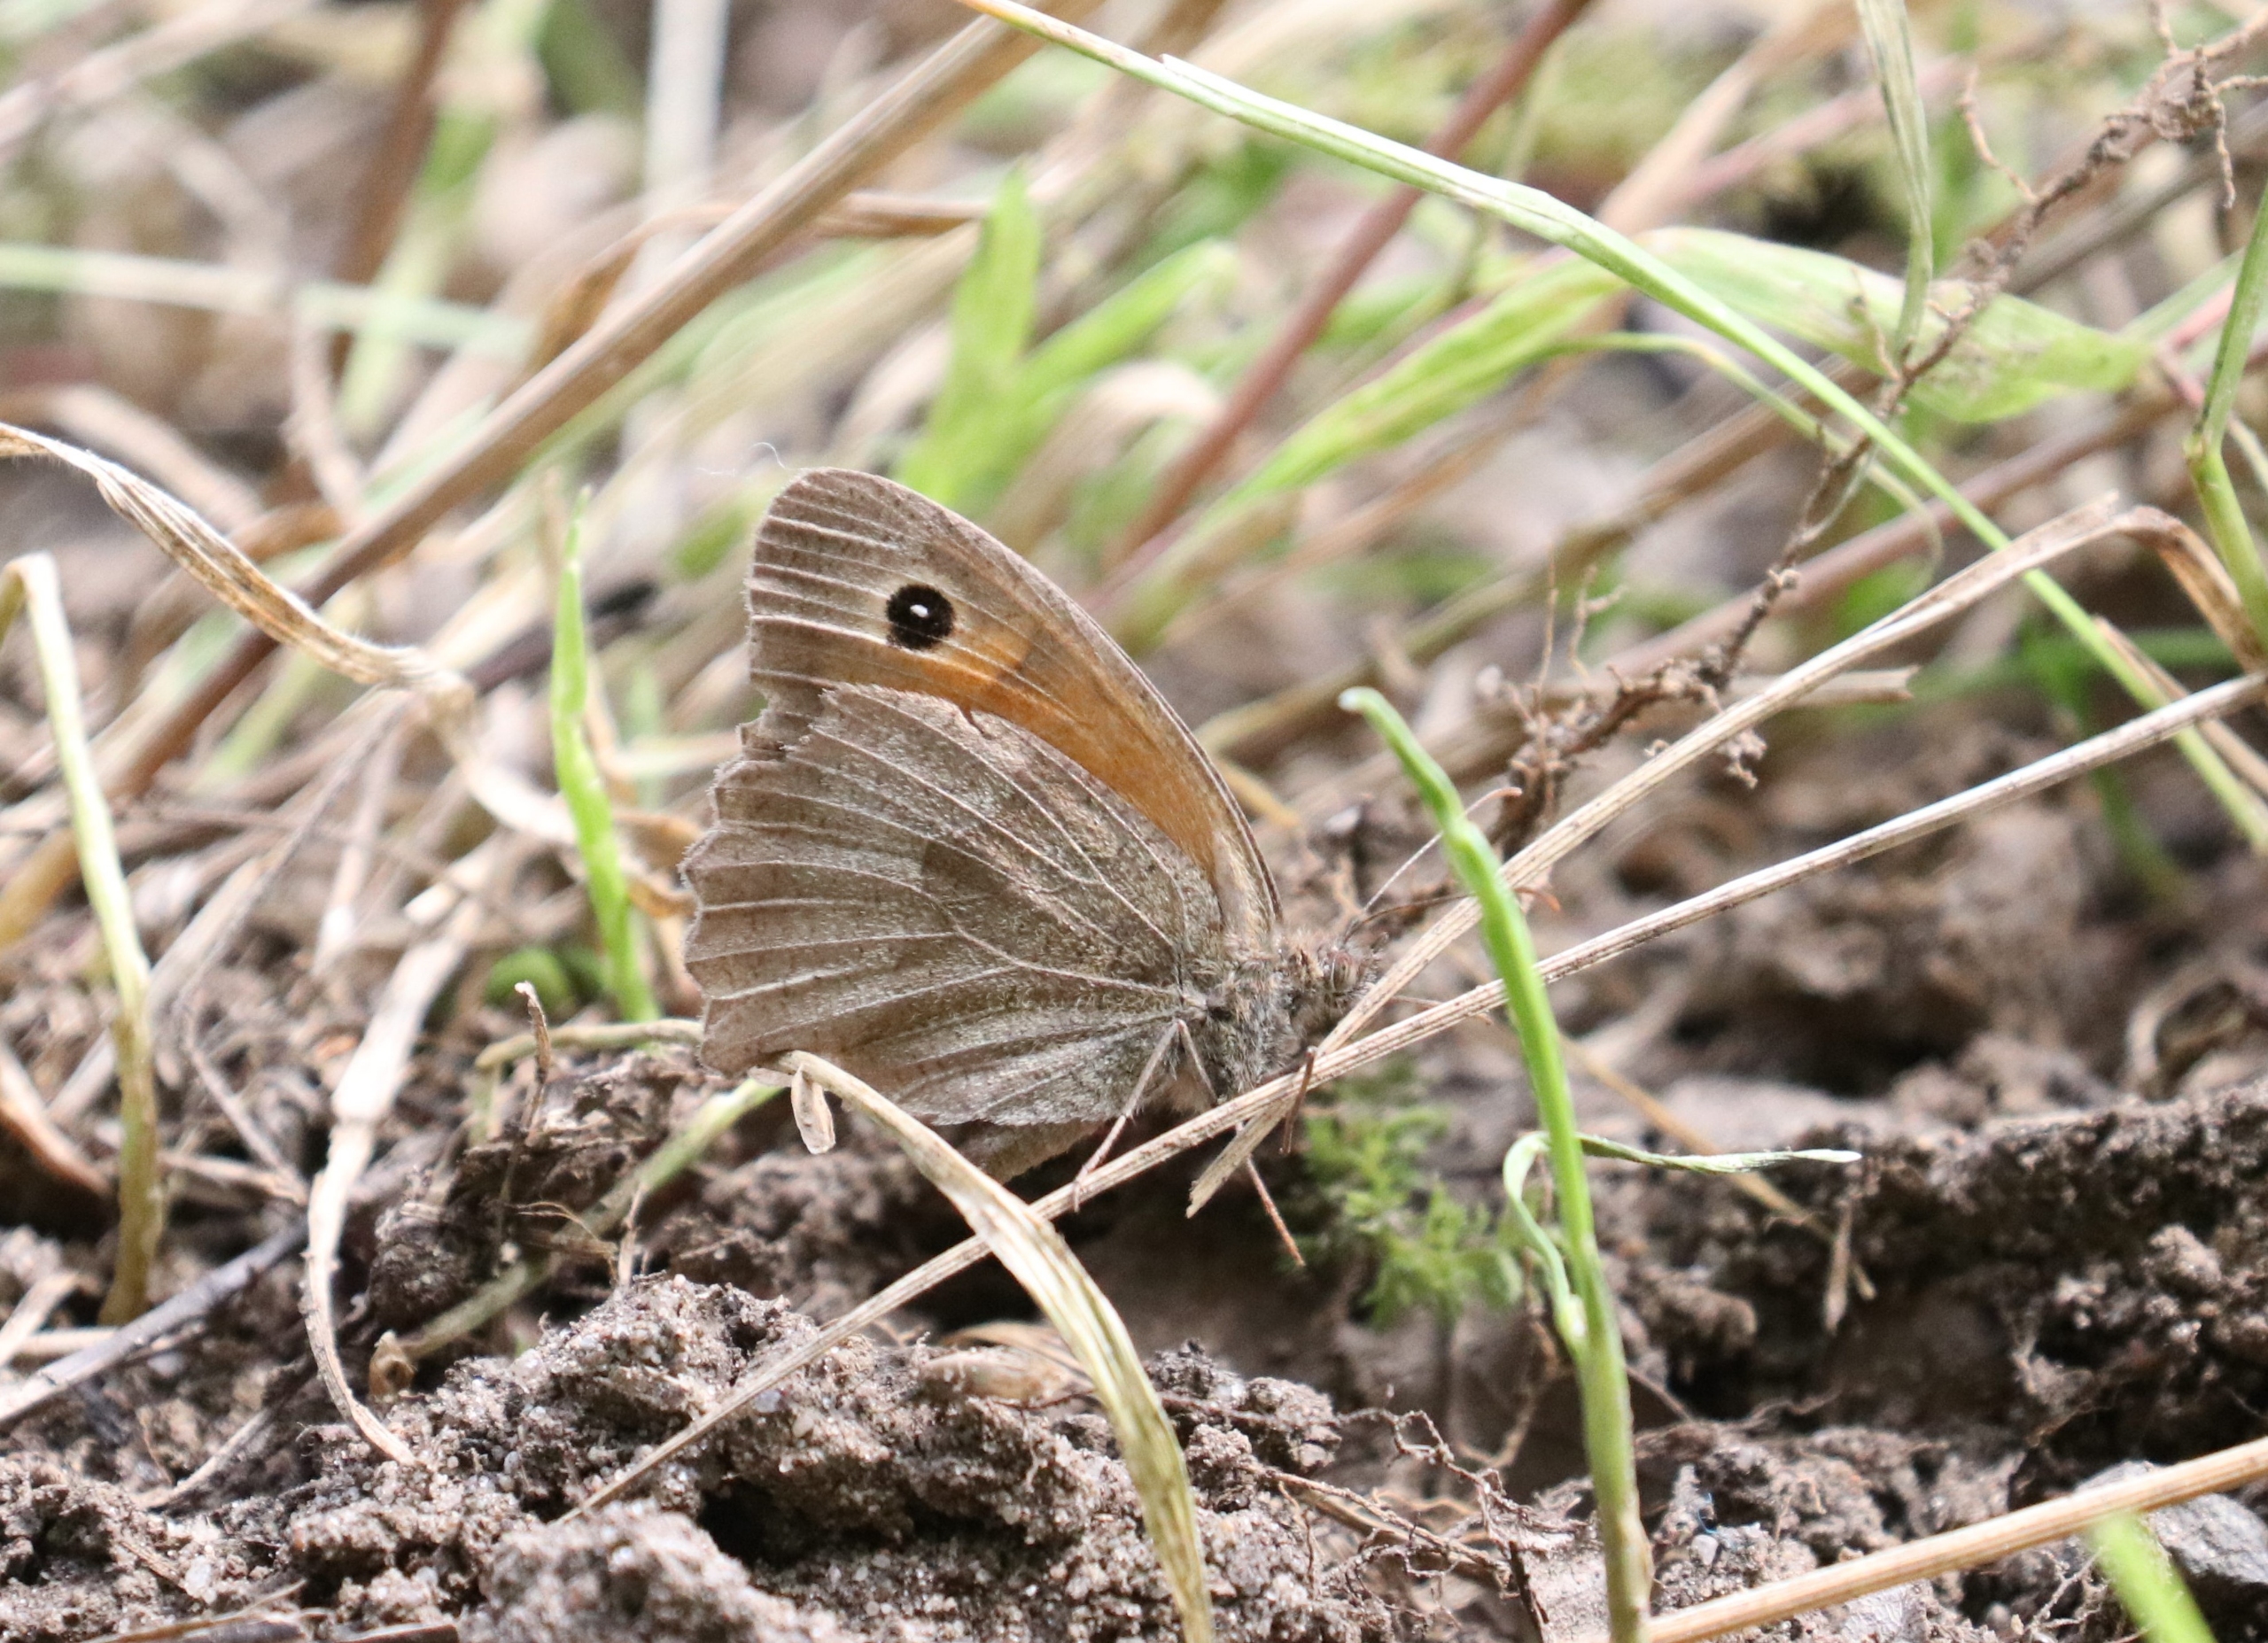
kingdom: Animalia
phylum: Arthropoda
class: Insecta
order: Lepidoptera
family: Nymphalidae
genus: Maniola
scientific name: Maniola jurtina
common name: Græsrandøje
